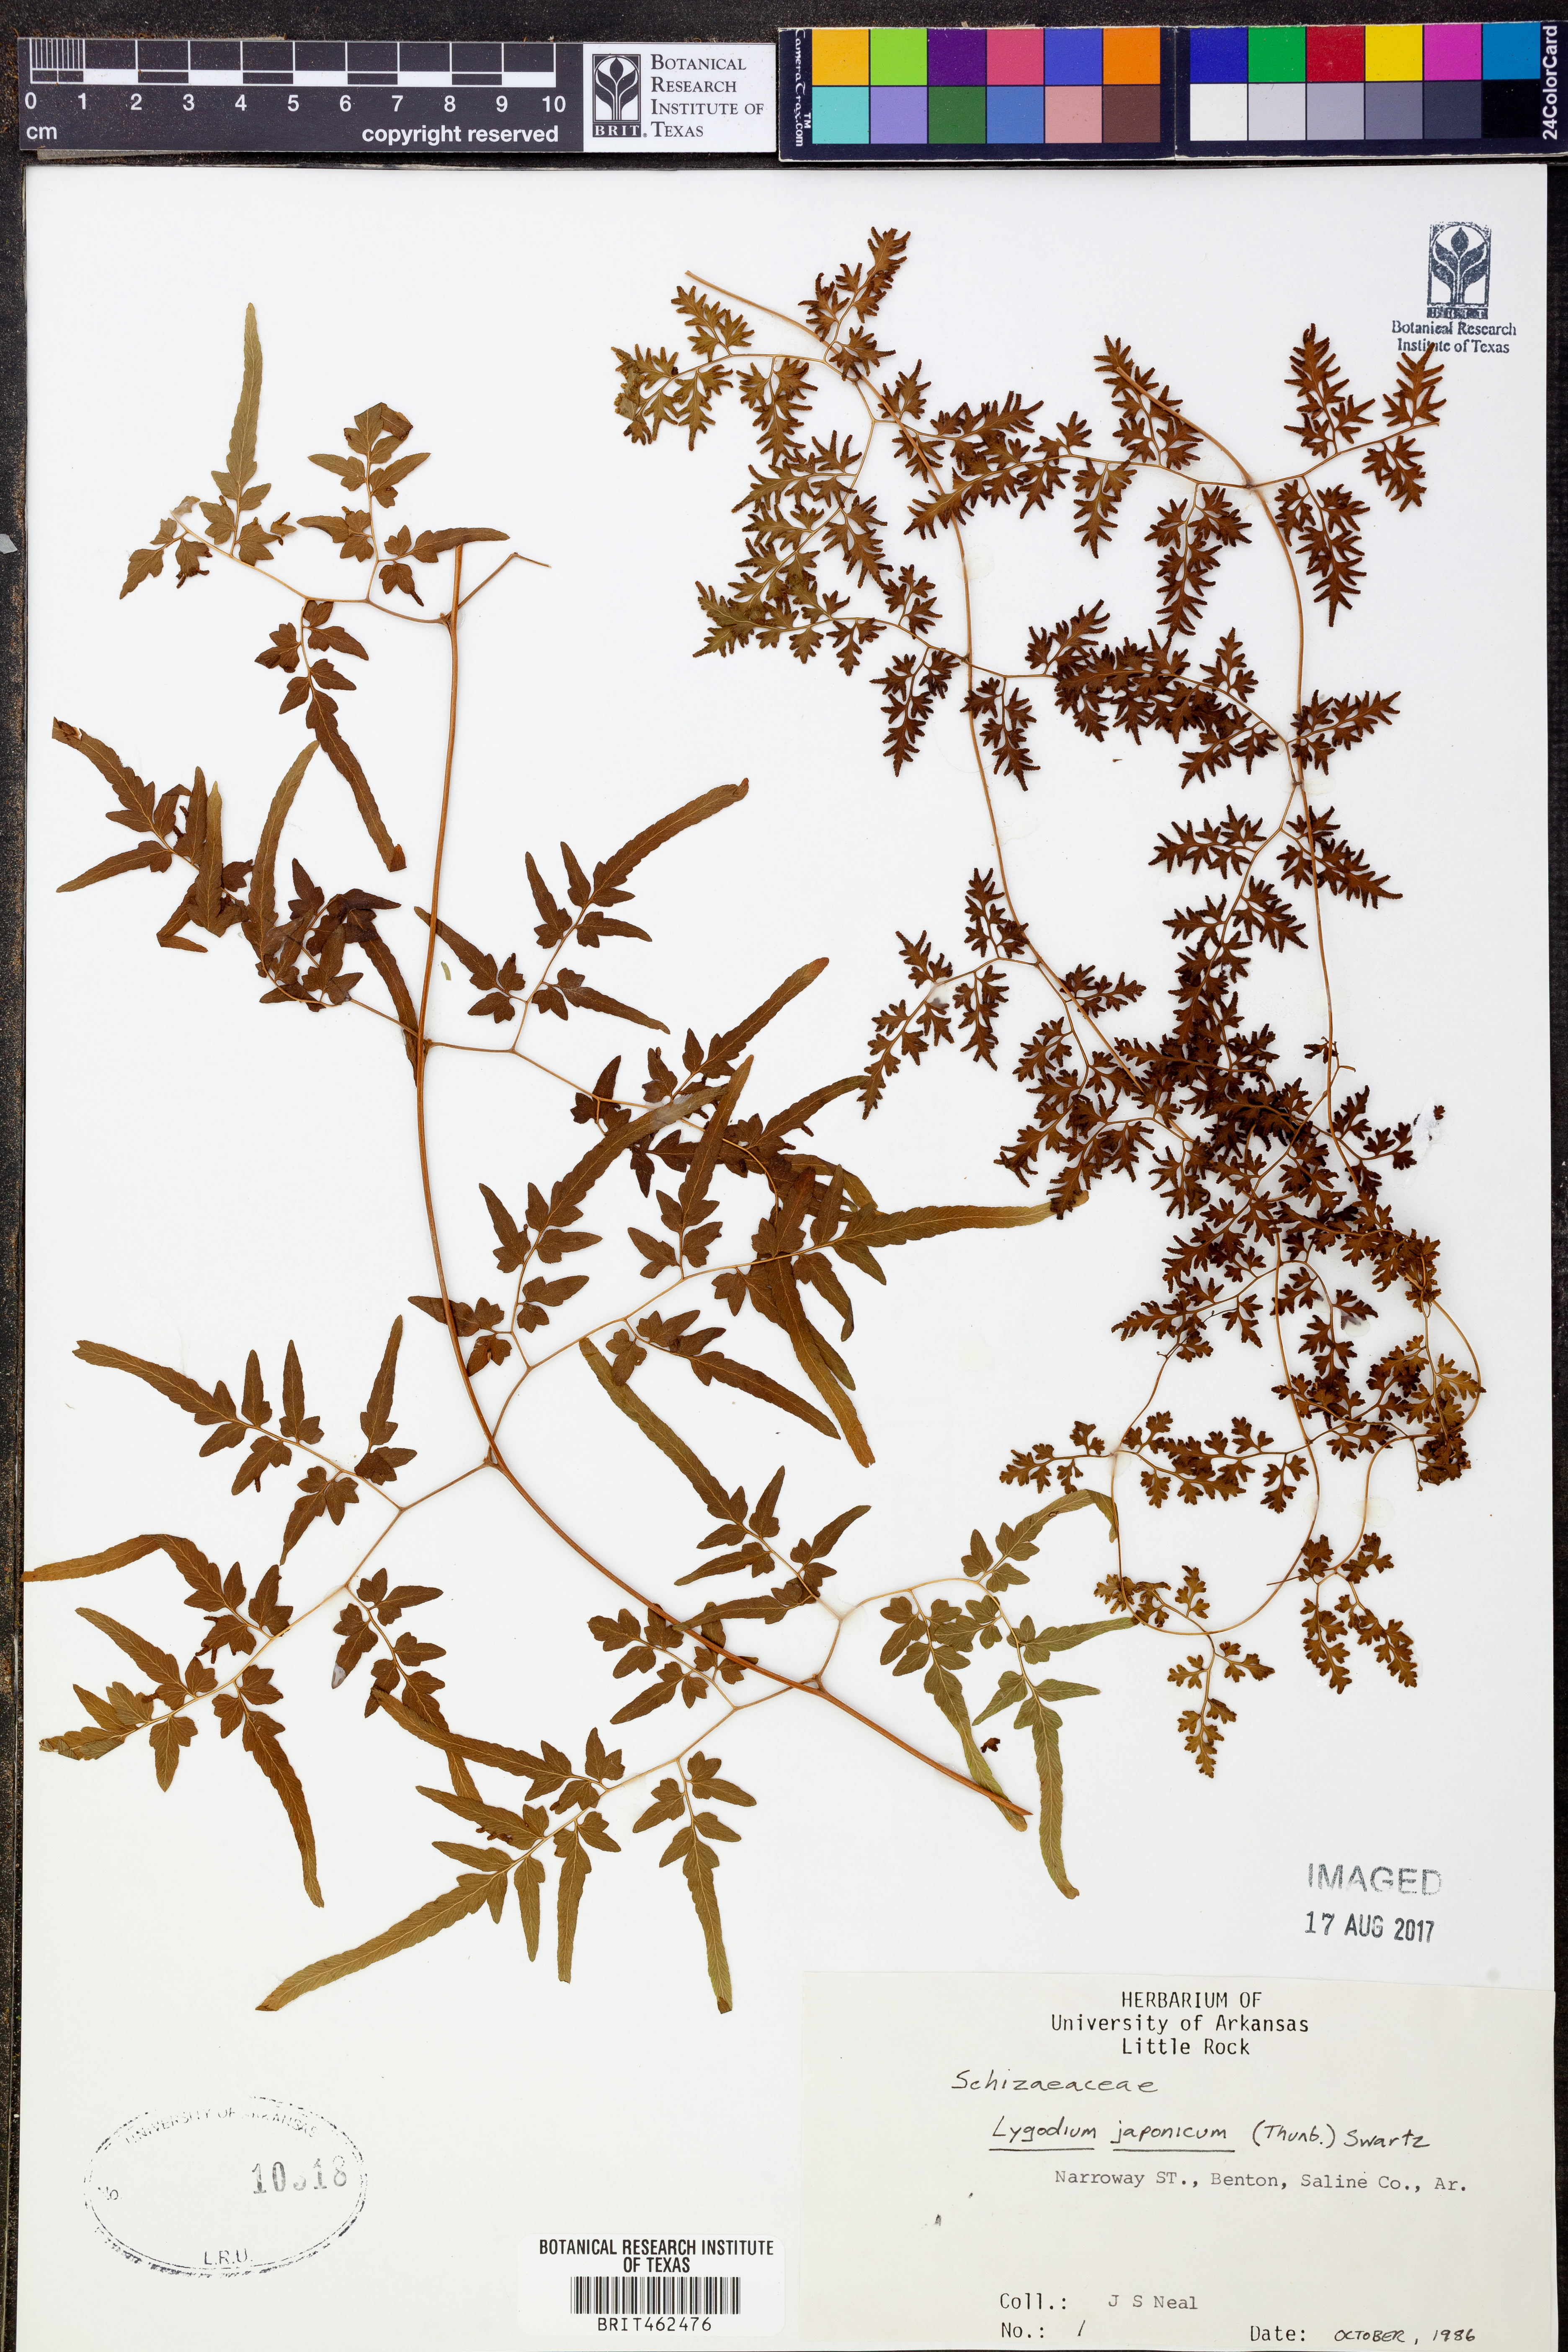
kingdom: Plantae
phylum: Tracheophyta
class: Polypodiopsida
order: Schizaeales
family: Lygodiaceae
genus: Lygodium
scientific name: Lygodium japonicum
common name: Japanese climbing fern
